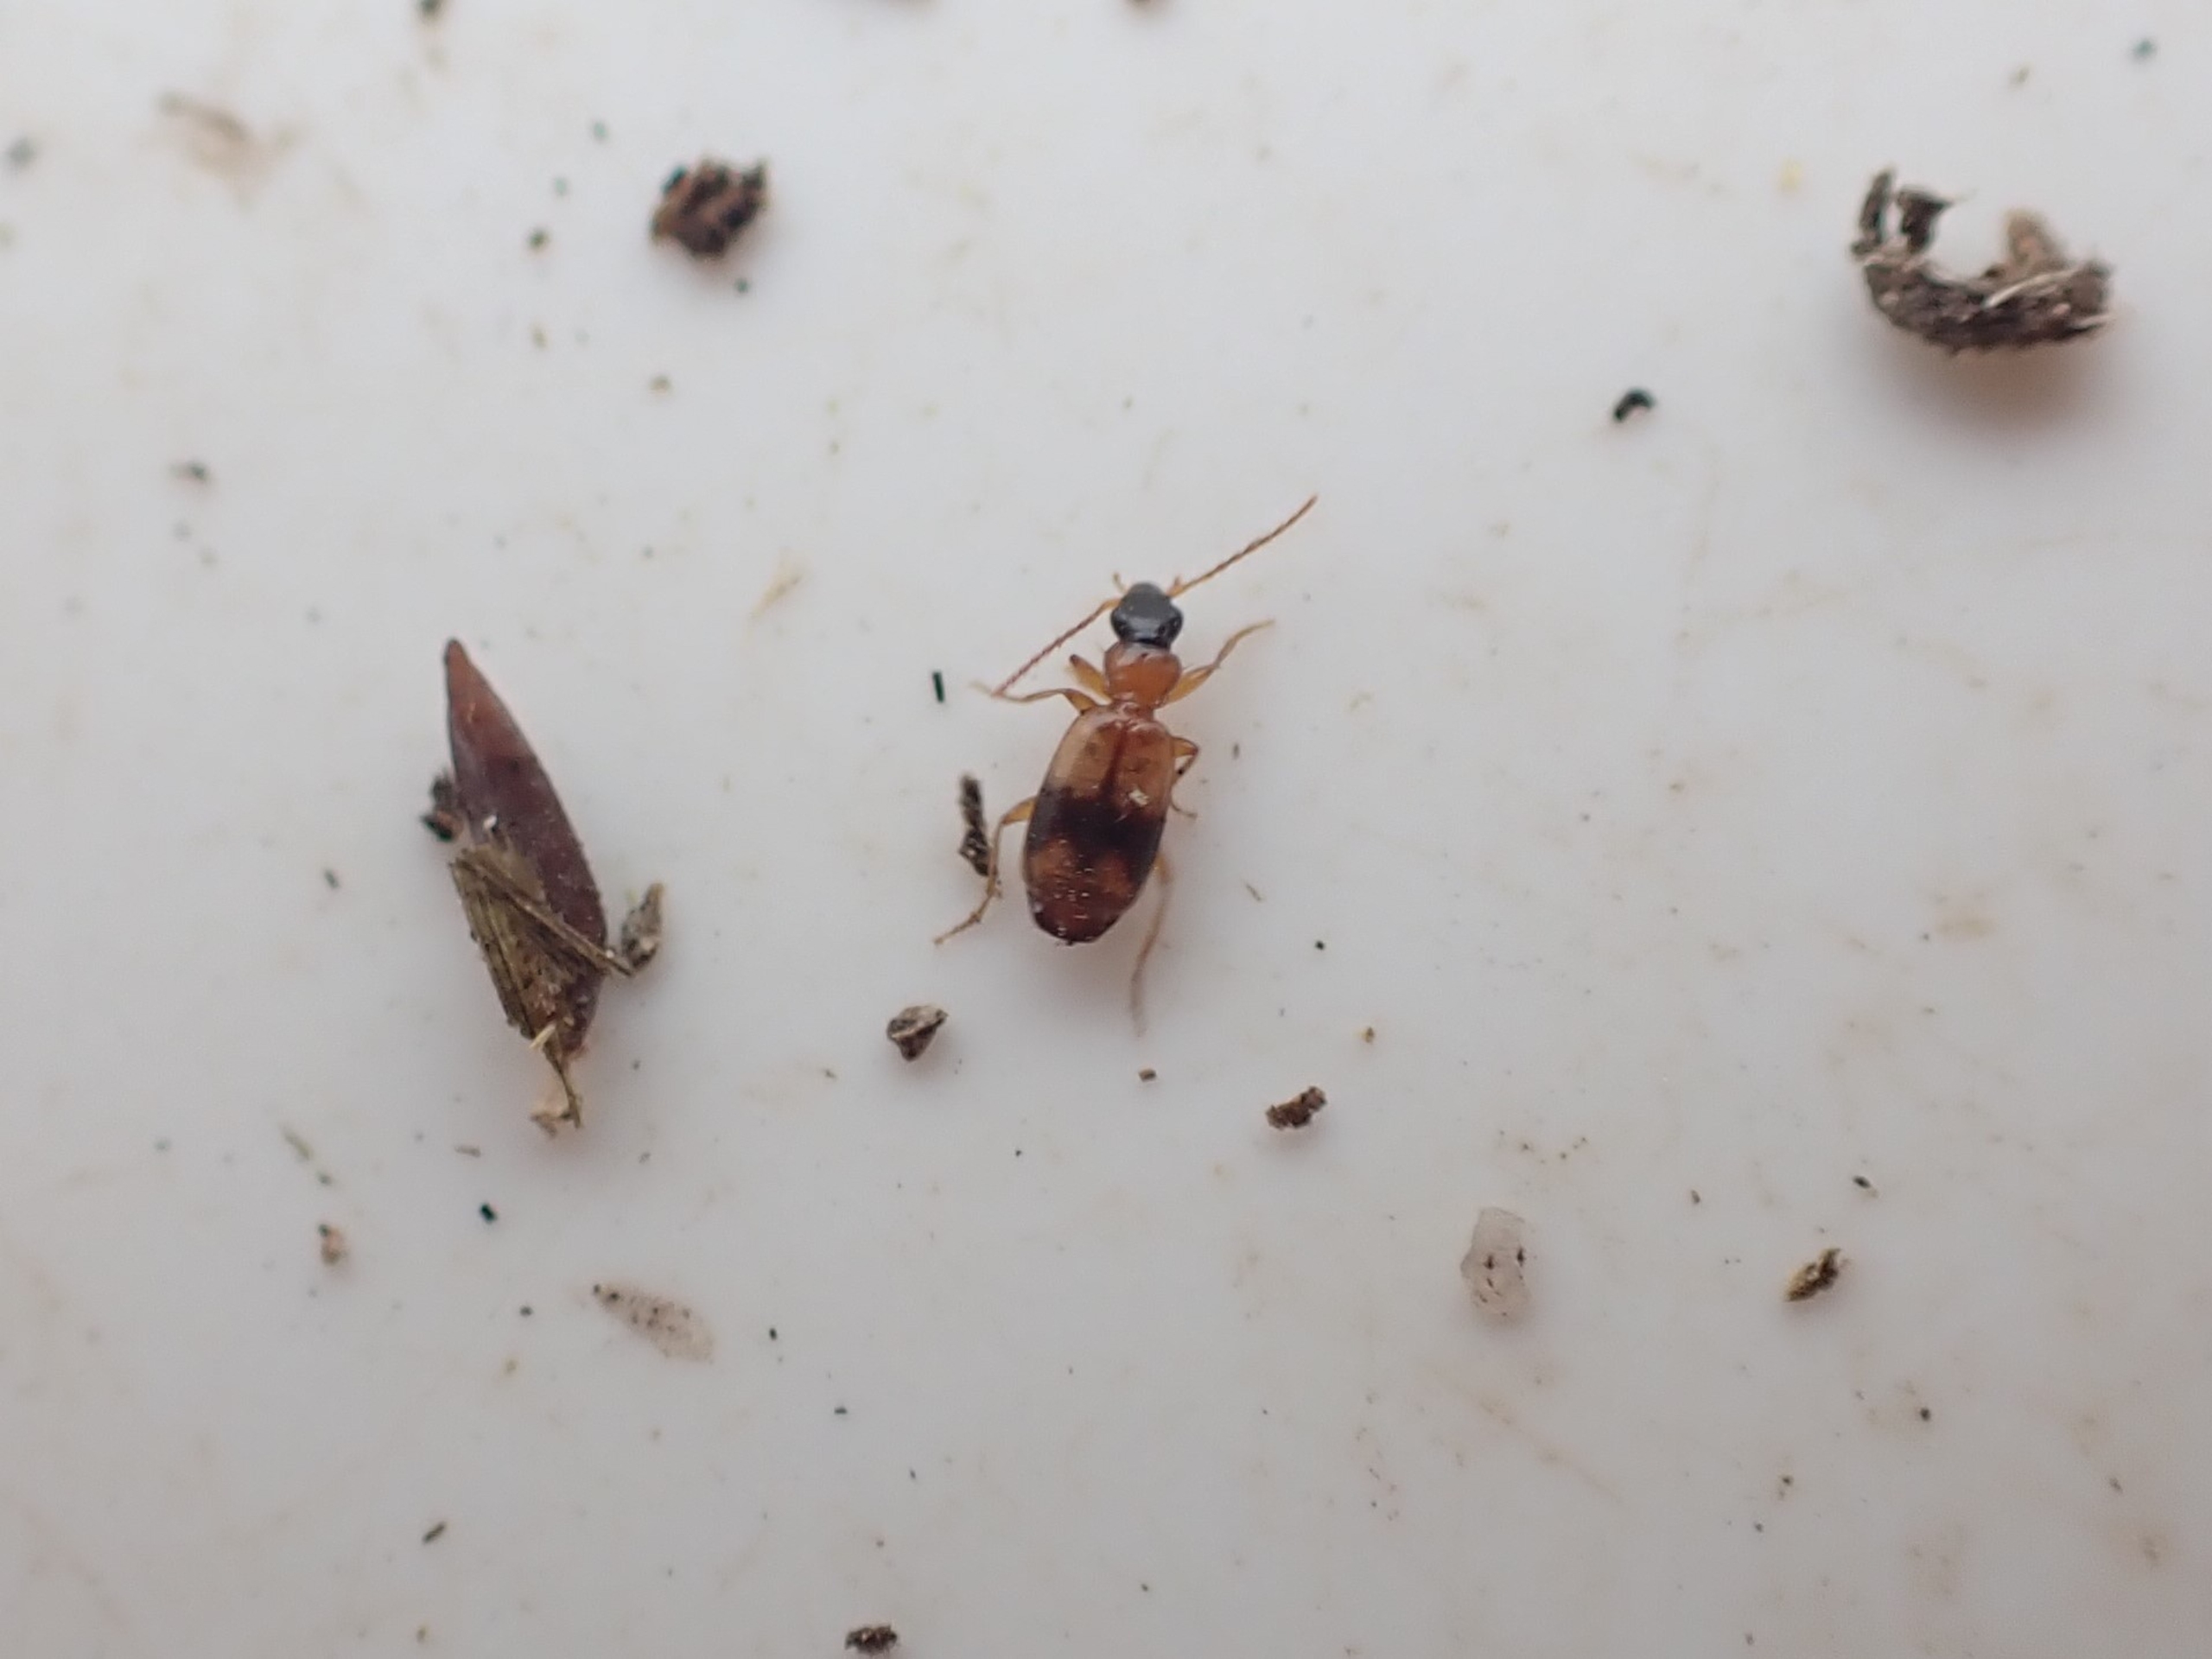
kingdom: Animalia
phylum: Arthropoda
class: Insecta
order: Coleoptera
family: Carabidae
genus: Philorhizus
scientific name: Philorhizus sigma
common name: Båndtegnet sivløber
